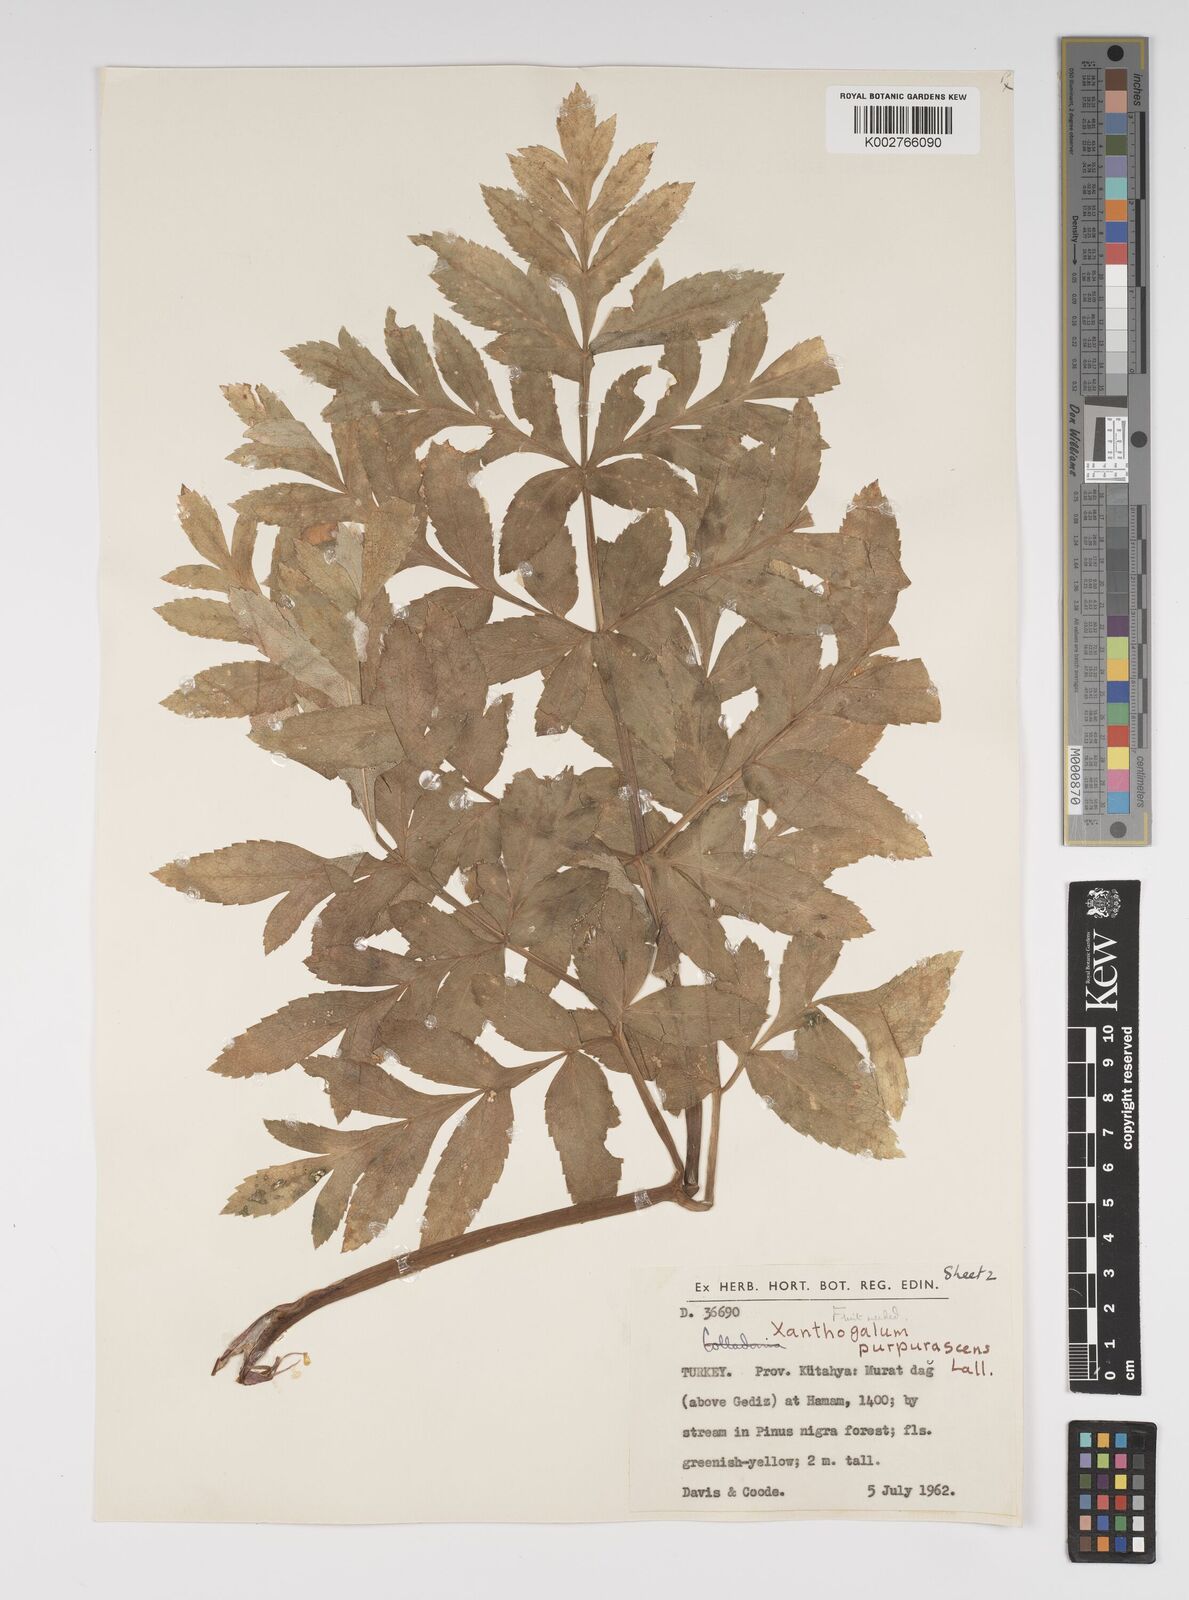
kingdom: Plantae
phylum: Tracheophyta
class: Magnoliopsida
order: Apiales
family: Apiaceae
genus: Xanthogalum
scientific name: Xanthogalum purpurascens
